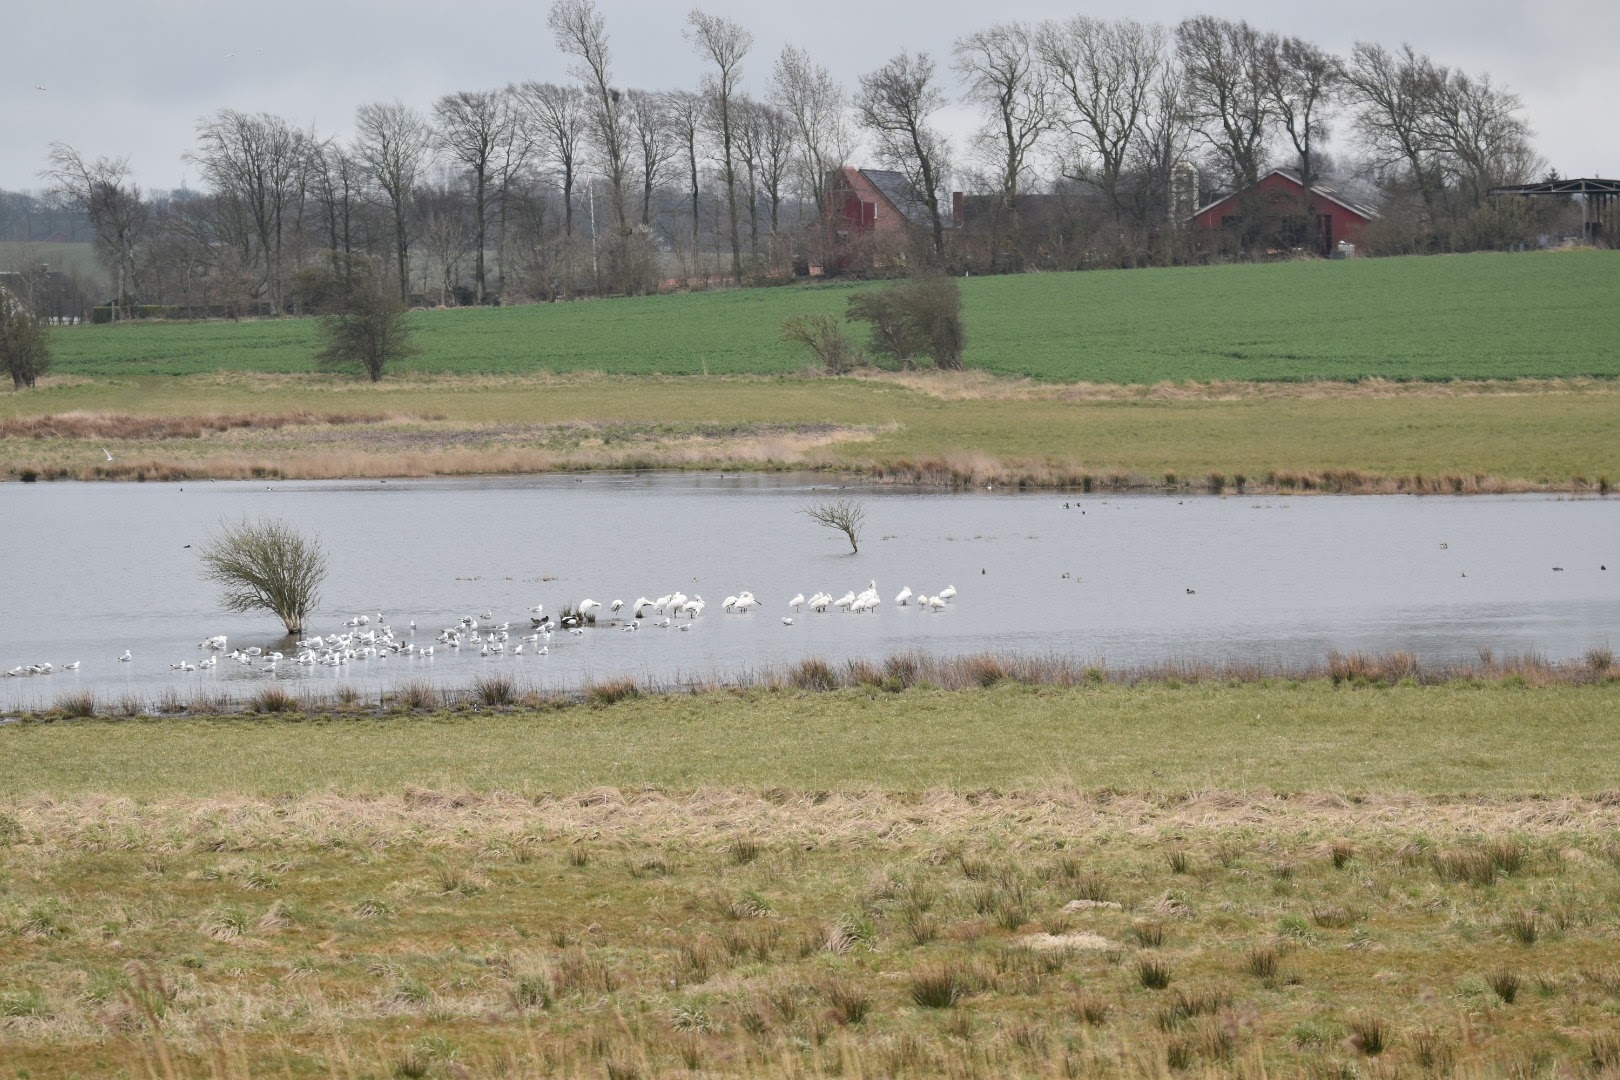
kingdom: Animalia
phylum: Chordata
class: Aves
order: Pelecaniformes
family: Threskiornithidae
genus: Platalea
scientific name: Platalea leucorodia
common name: Skestork
